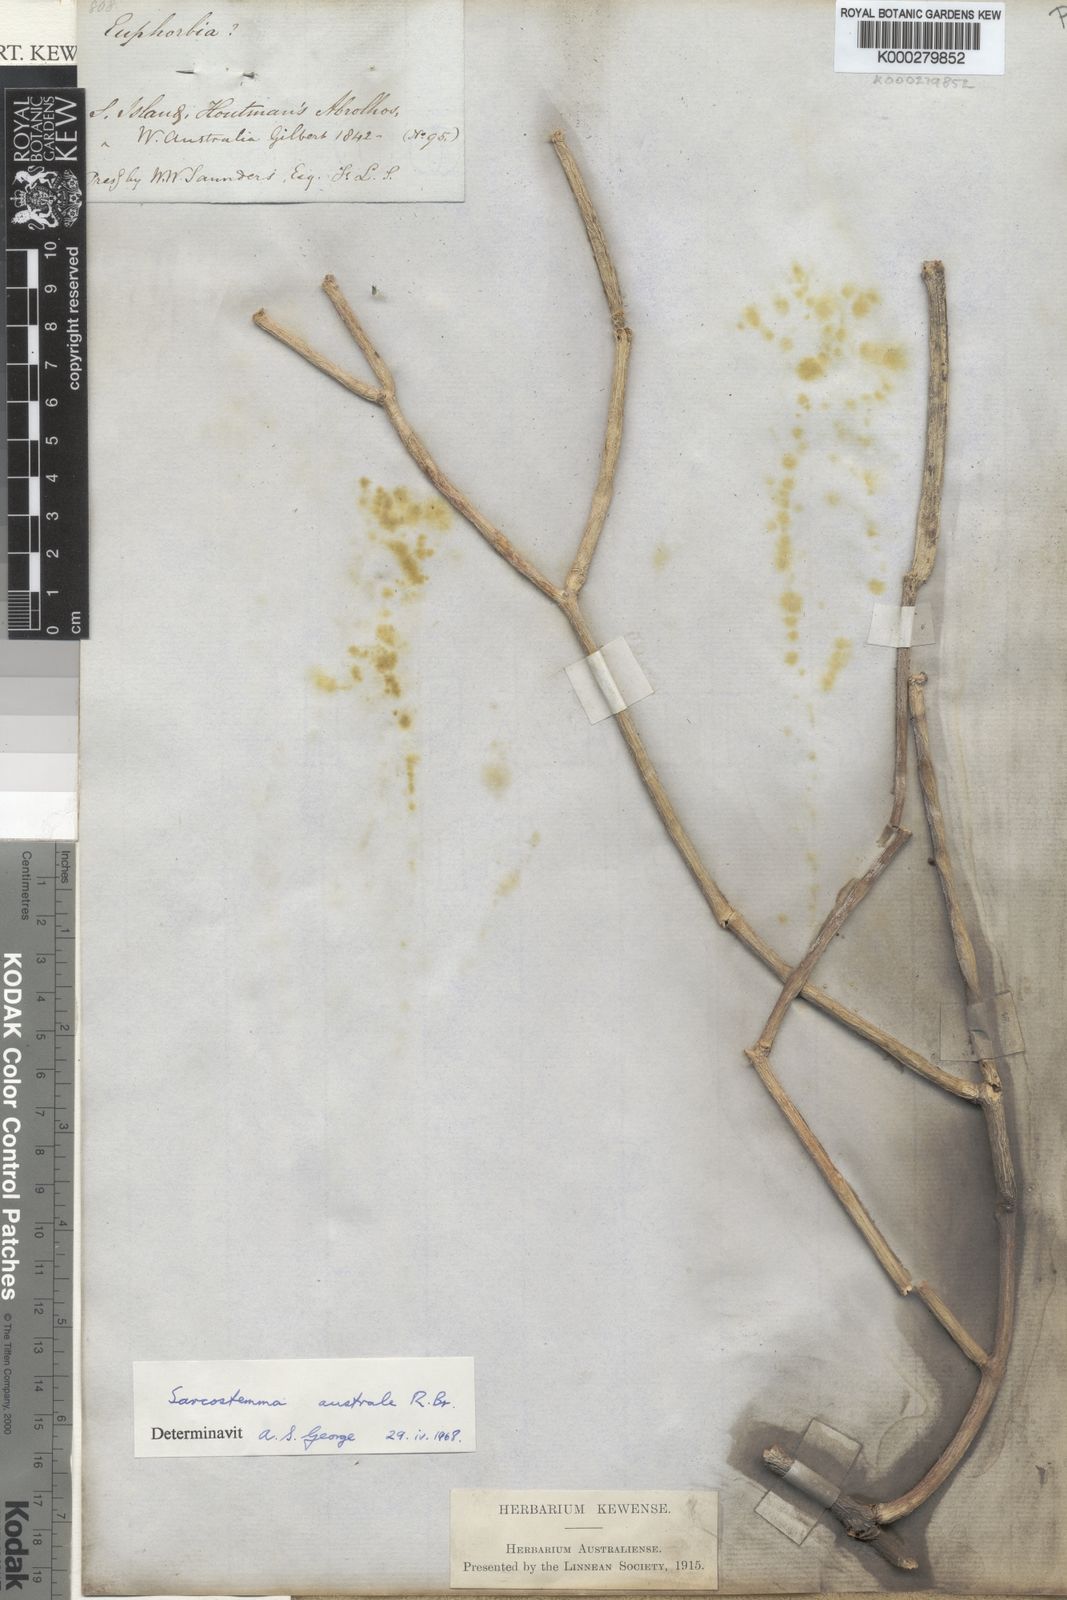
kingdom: Plantae
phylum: Tracheophyta
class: Magnoliopsida
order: Gentianales
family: Apocynaceae
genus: Cynanchum
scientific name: Cynanchum viminale
